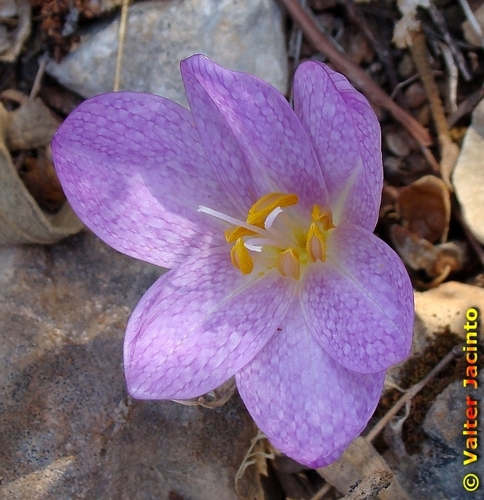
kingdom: Plantae
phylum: Tracheophyta
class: Liliopsida
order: Liliales
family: Colchicaceae
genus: Colchicum
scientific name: Colchicum lusitanum
